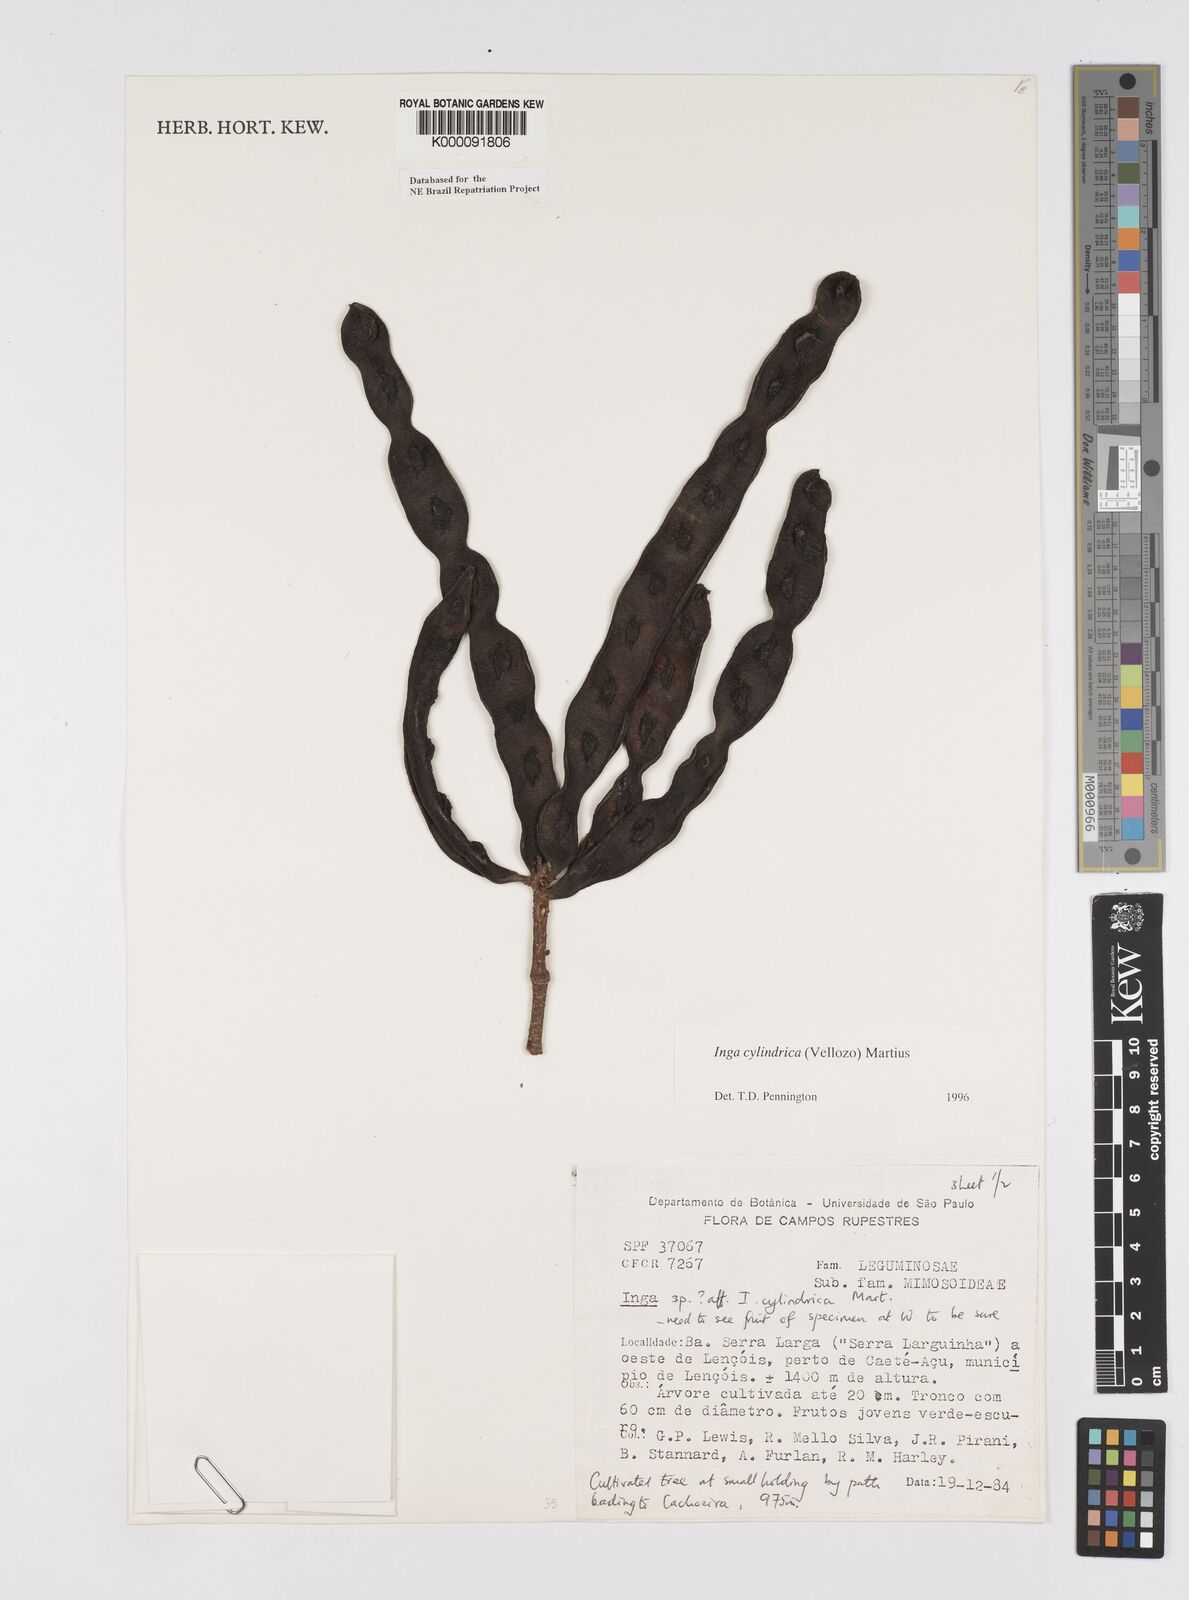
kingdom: Plantae
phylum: Tracheophyta
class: Magnoliopsida
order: Fabales
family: Fabaceae
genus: Inga
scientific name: Inga cylindrica
